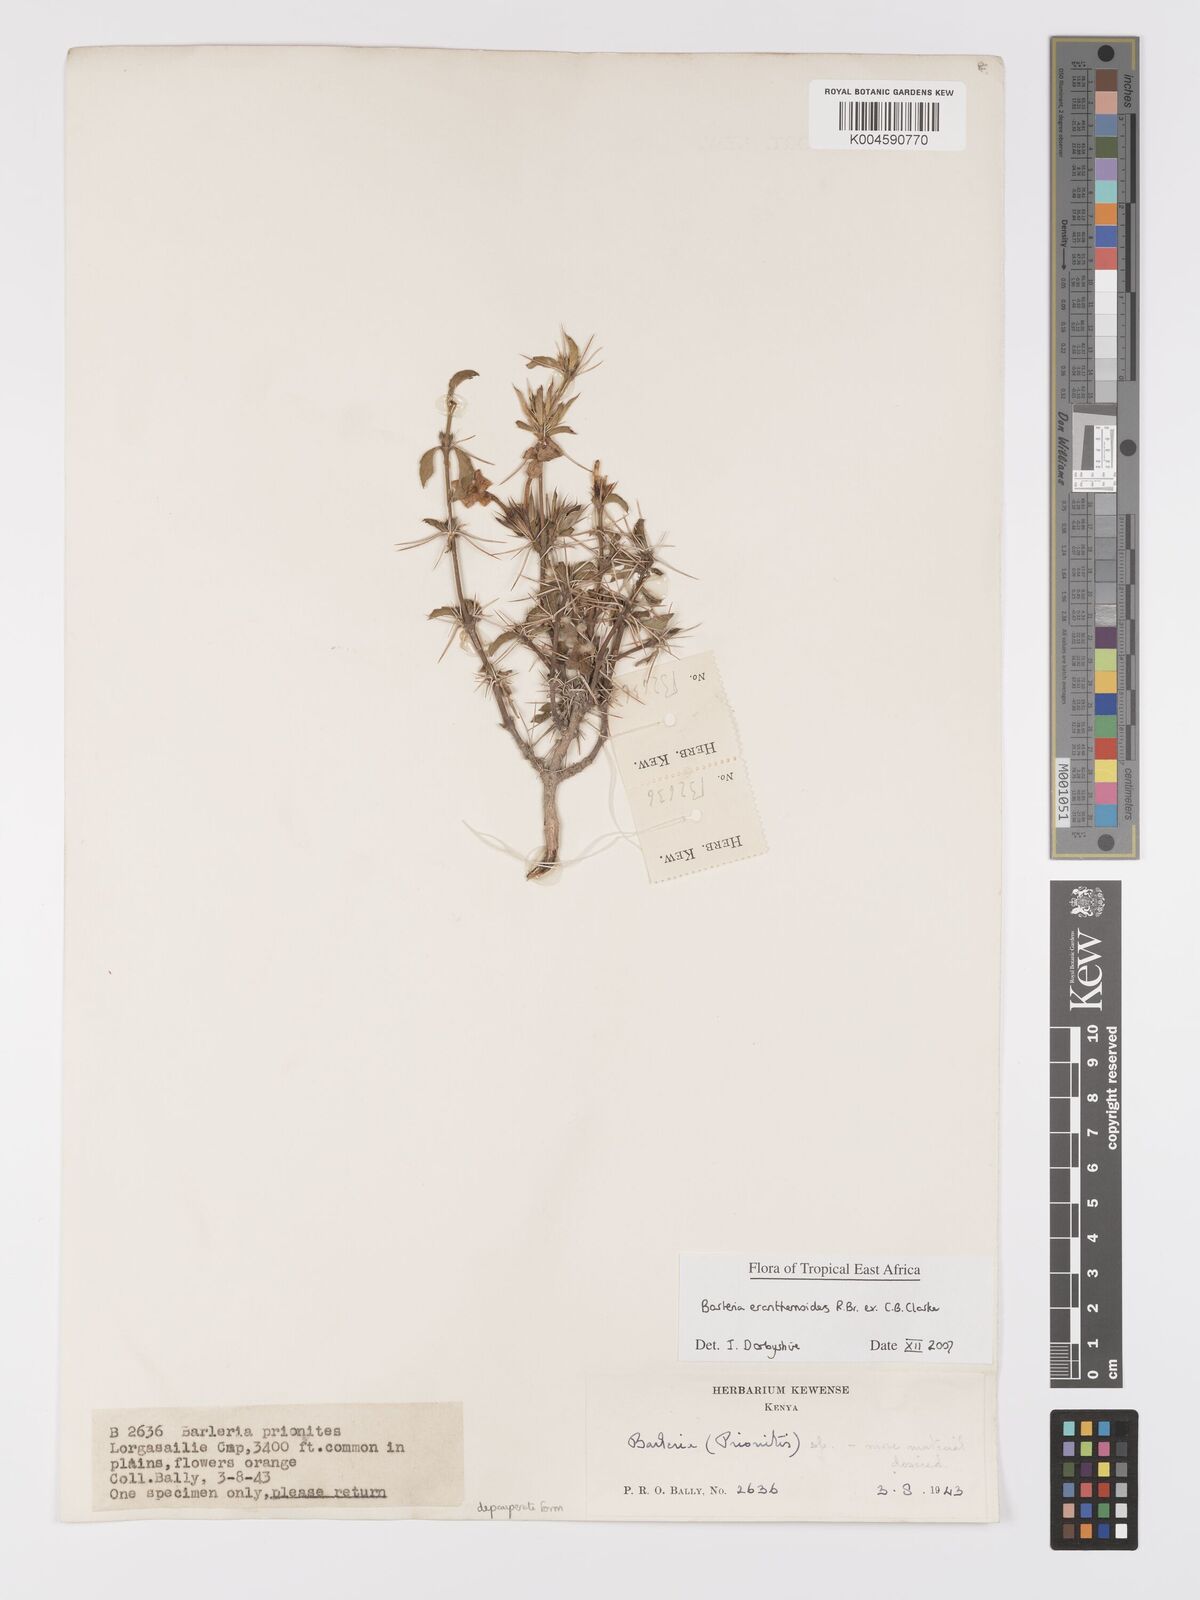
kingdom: Plantae
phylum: Tracheophyta
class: Magnoliopsida
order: Lamiales
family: Acanthaceae
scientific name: Acanthaceae
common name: Acanthaceae
